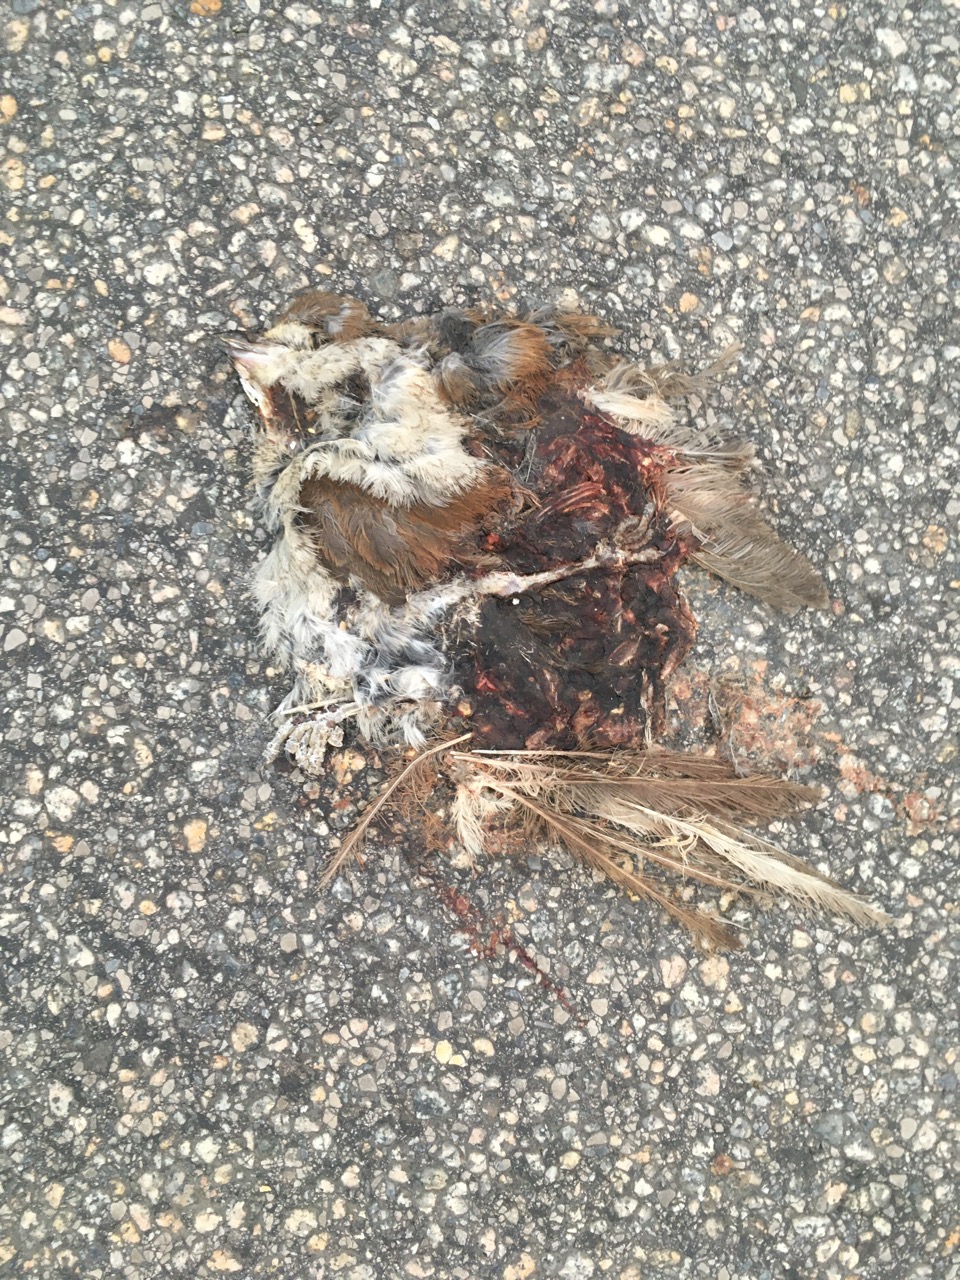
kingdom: Animalia
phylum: Chordata
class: Aves
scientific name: Aves
